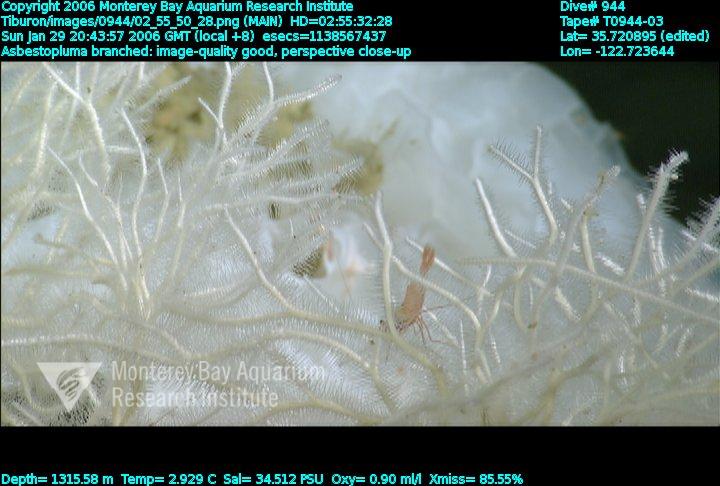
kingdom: Animalia
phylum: Porifera
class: Demospongiae
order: Poecilosclerida
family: Cladorhizidae
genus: Asbestopluma
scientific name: Asbestopluma monticola
